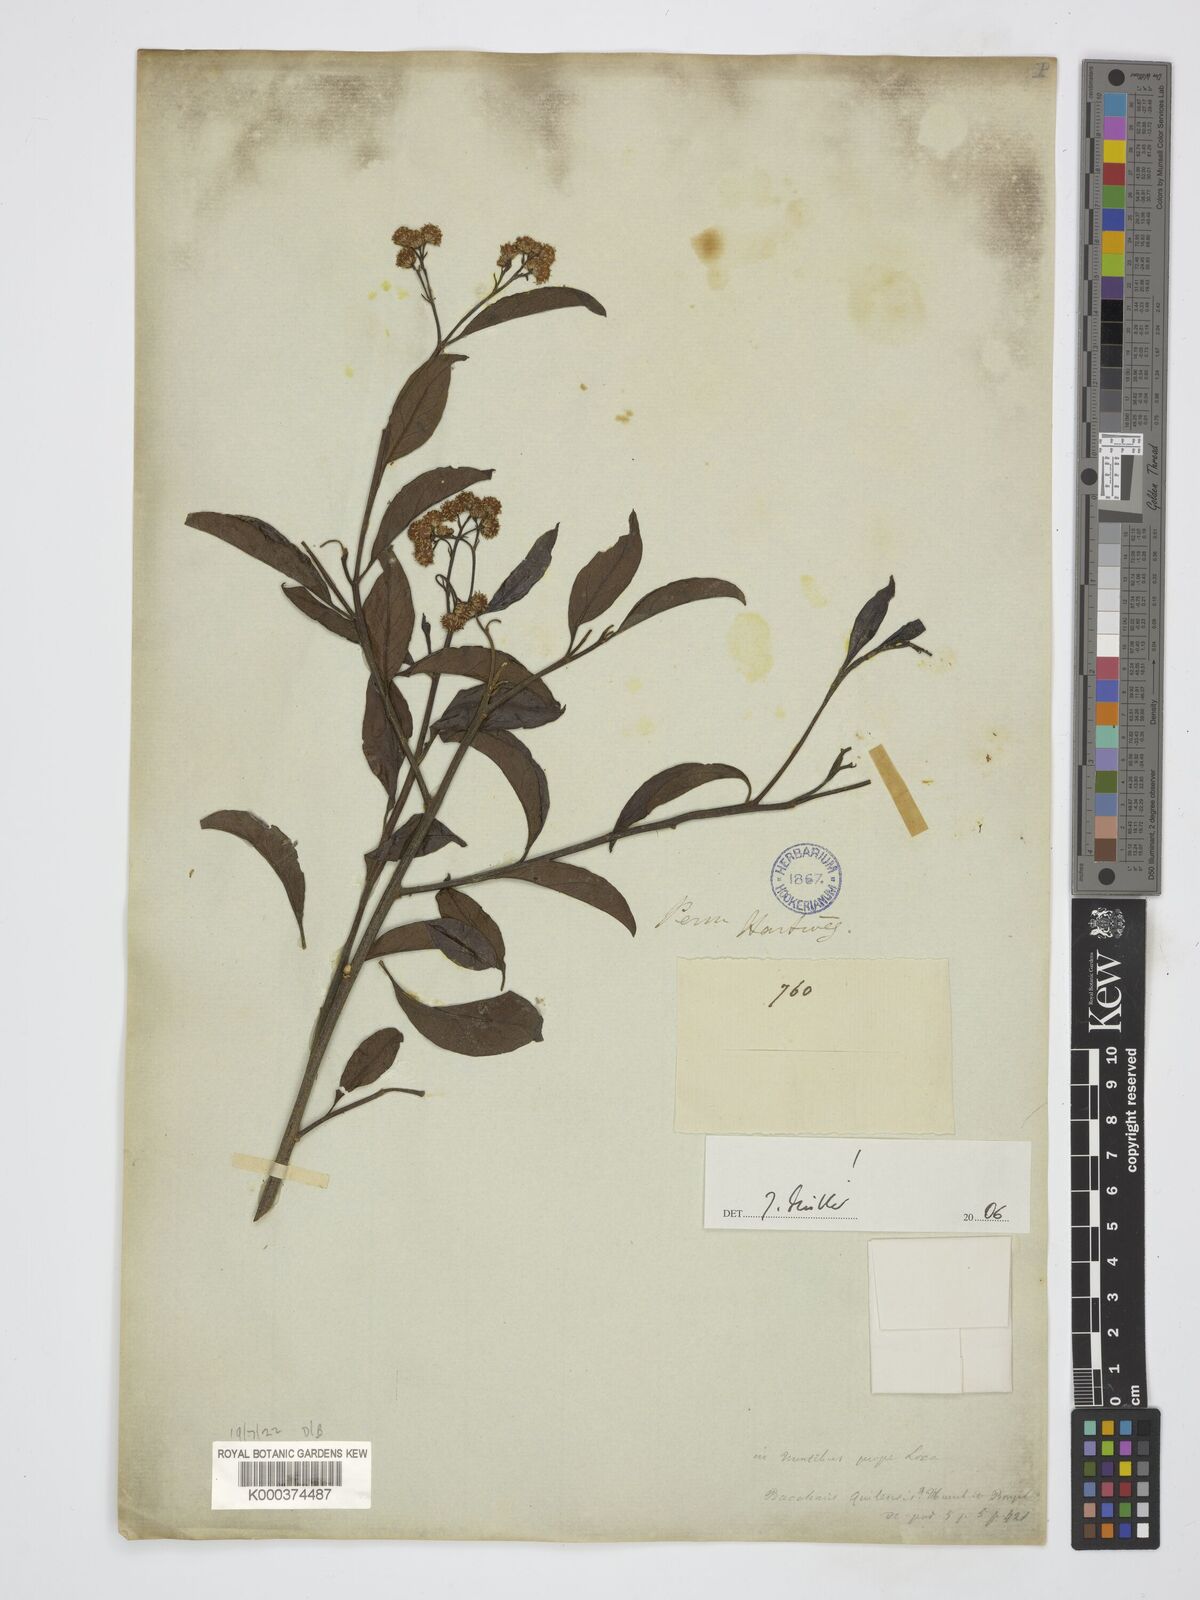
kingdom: Plantae
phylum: Tracheophyta
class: Magnoliopsida
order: Asterales
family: Asteraceae
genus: Baccharis
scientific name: Baccharis quitensis
